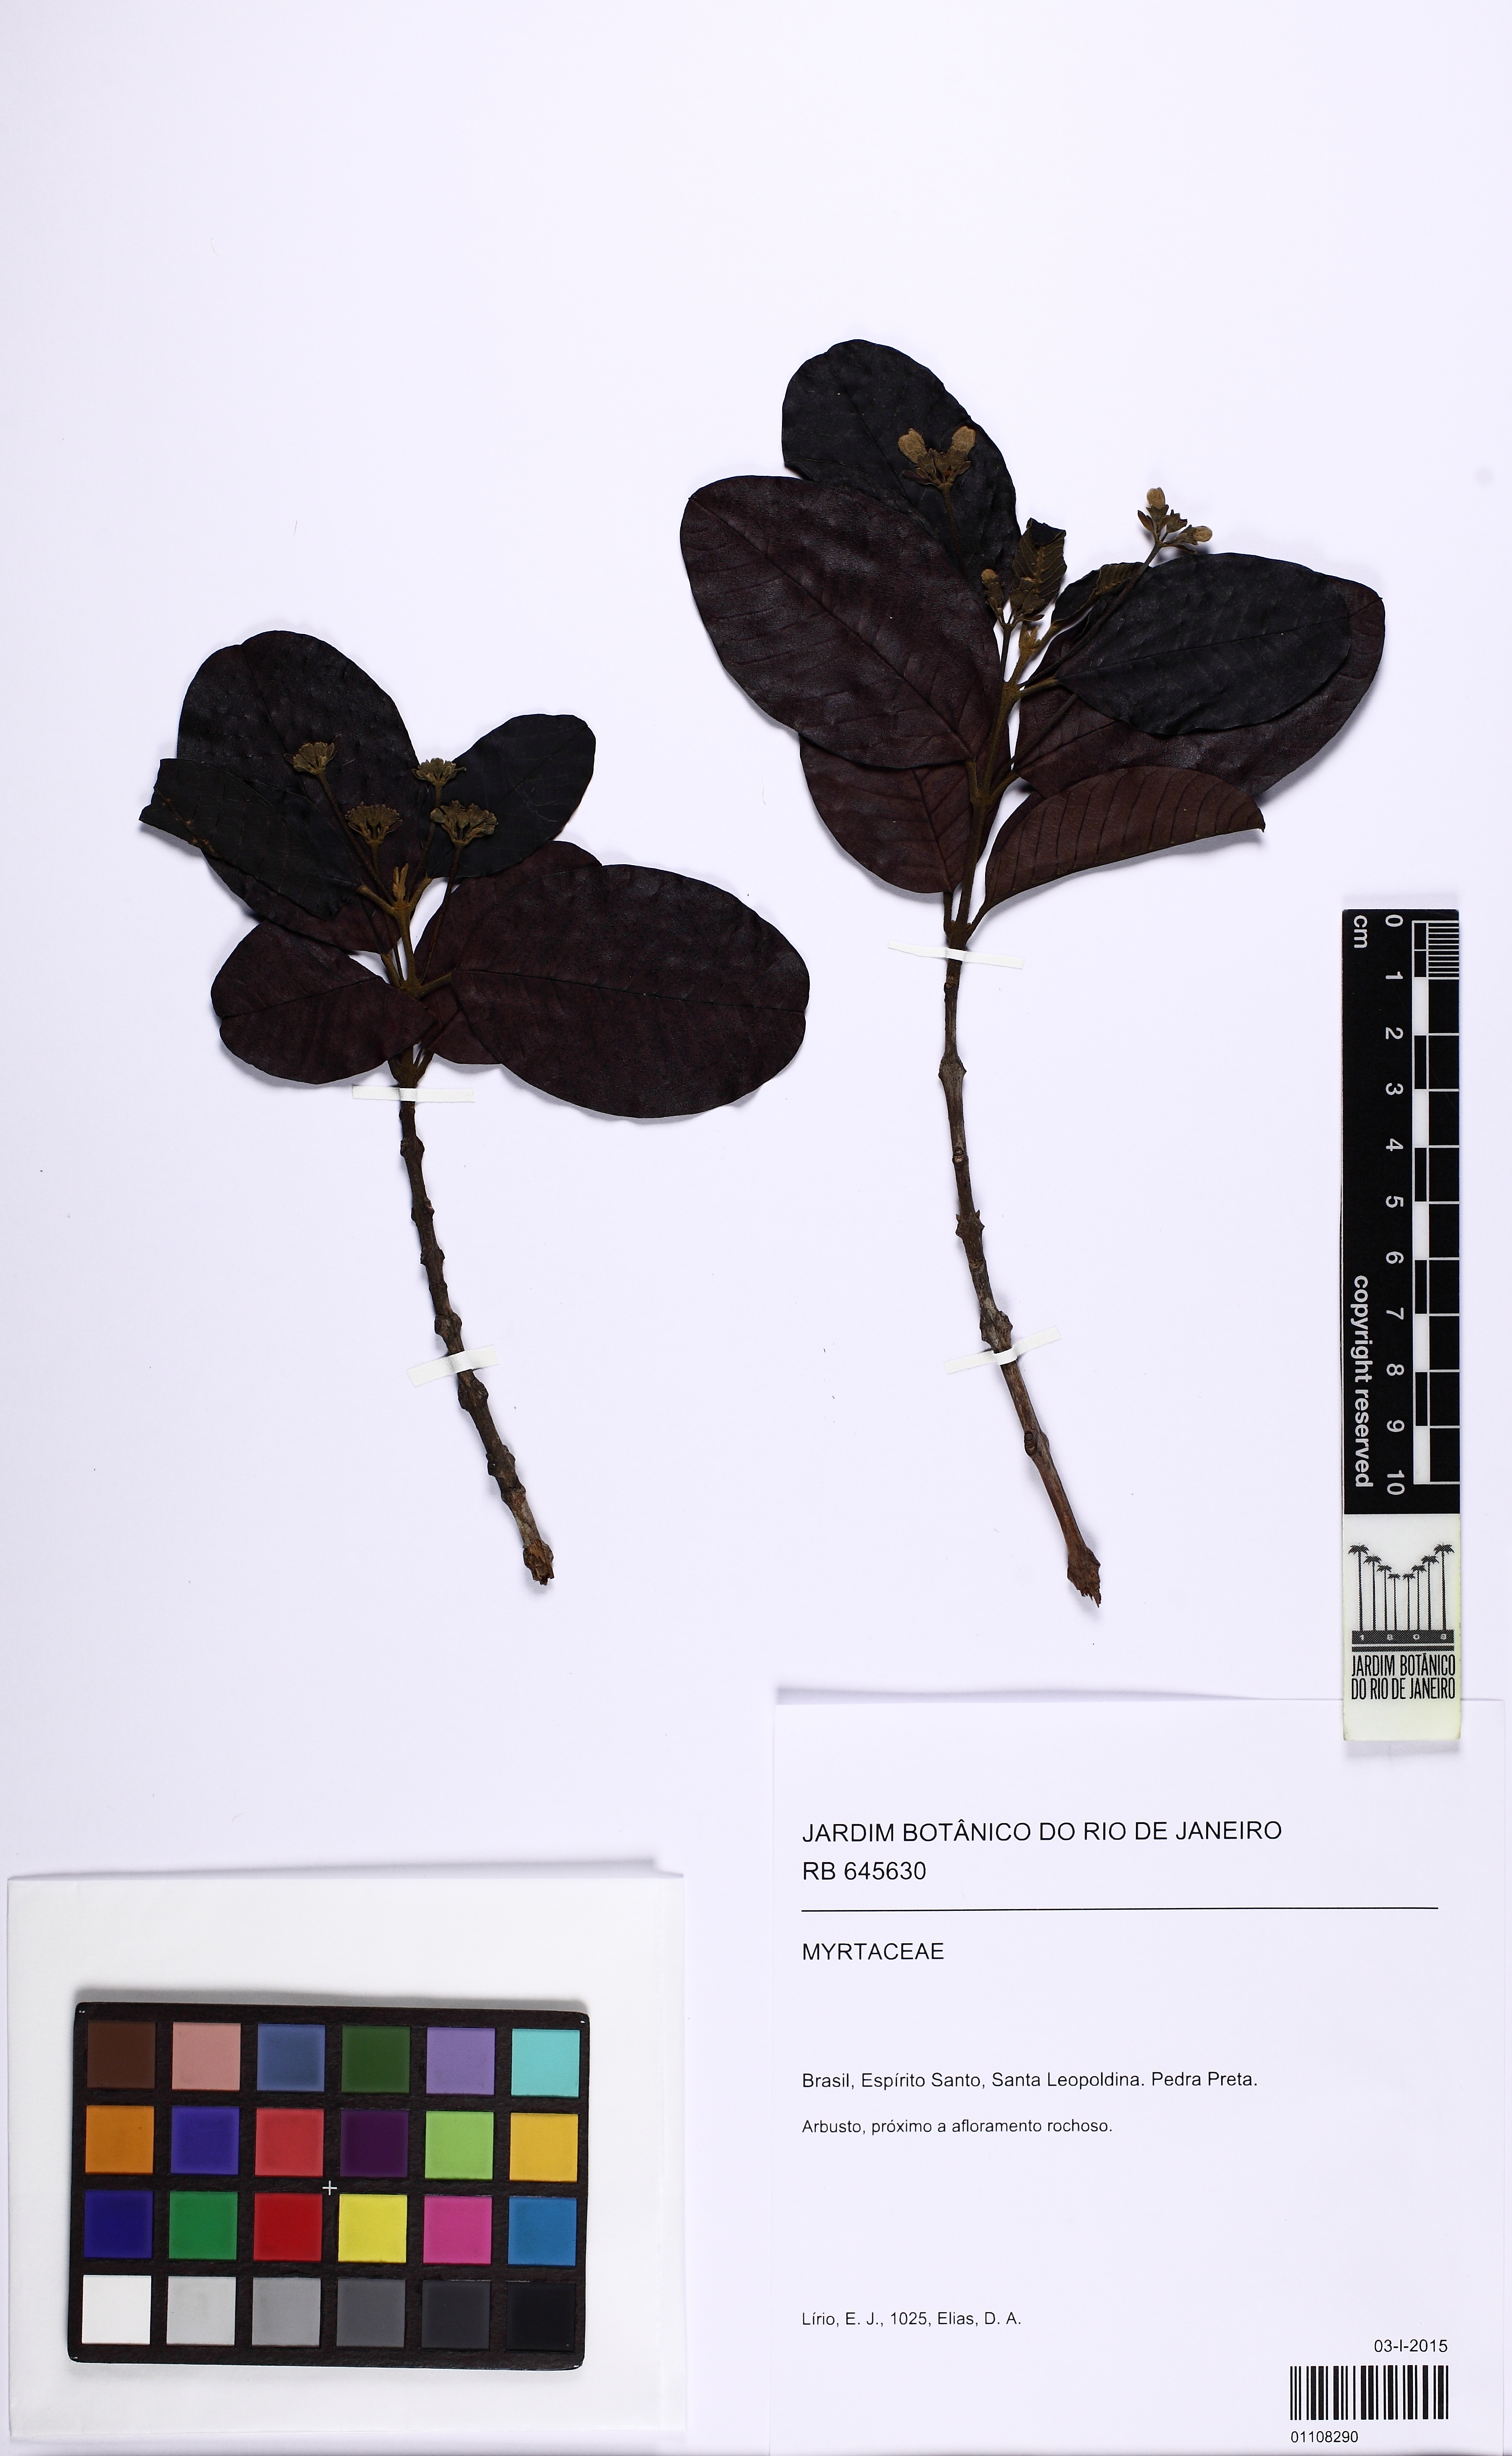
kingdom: Plantae
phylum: Tracheophyta
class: Magnoliopsida
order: Gentianales
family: Rubiaceae
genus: Guettarda
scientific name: Guettarda
